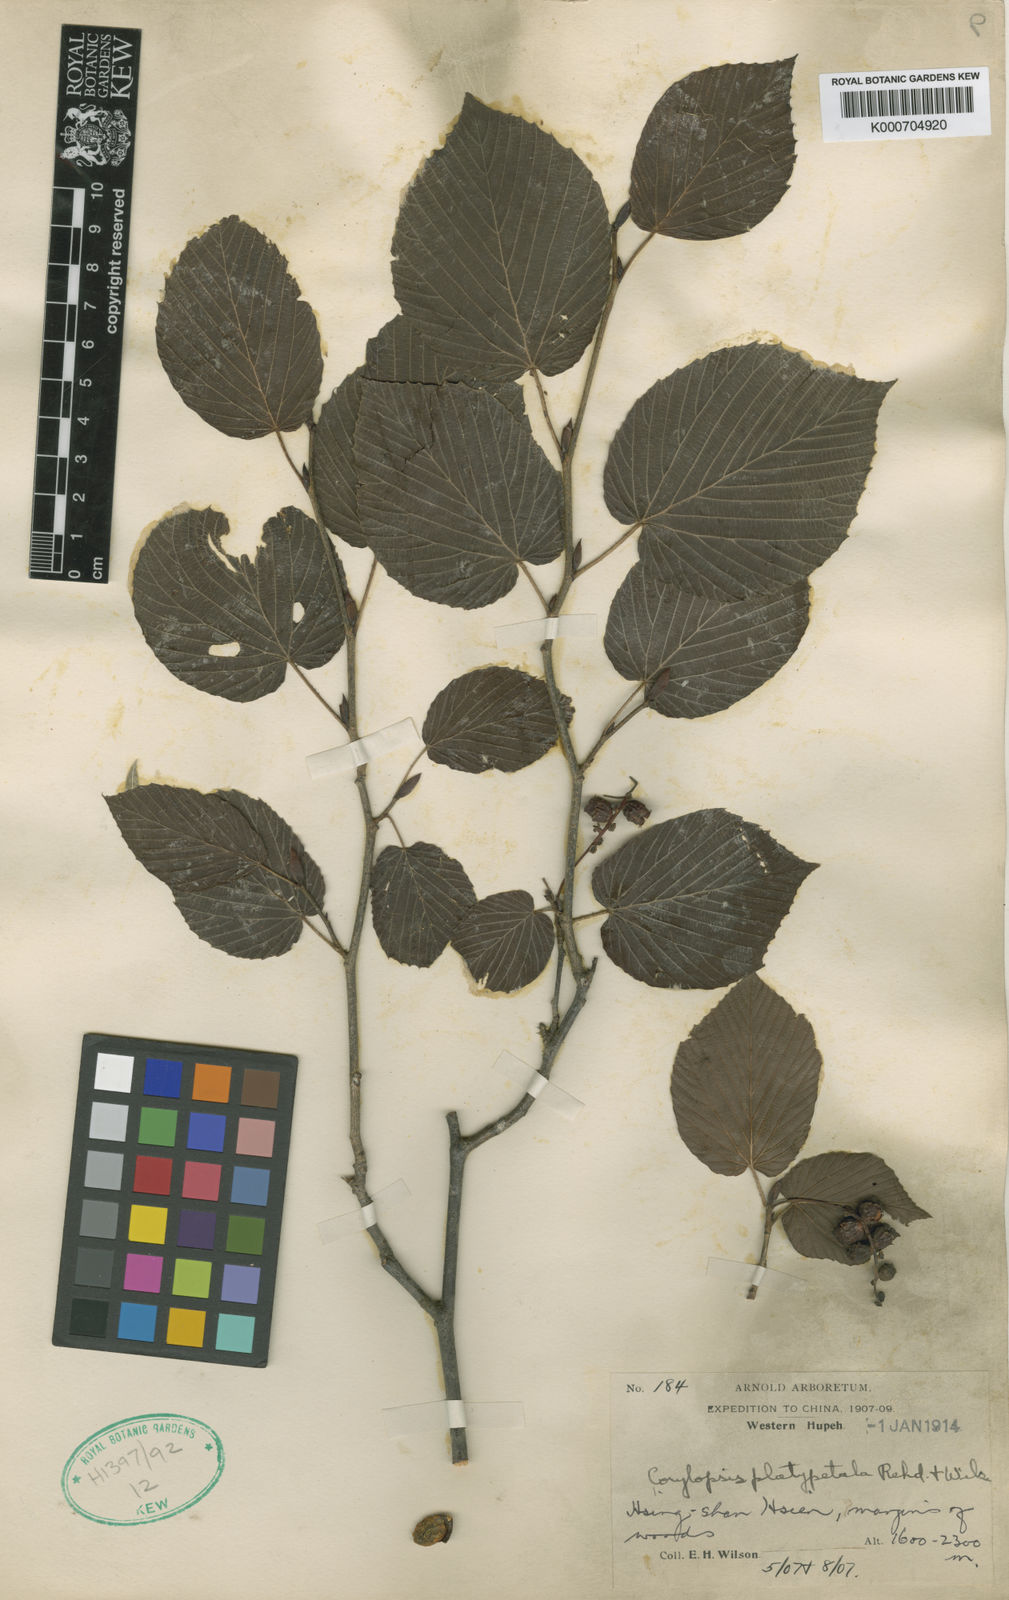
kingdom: Plantae
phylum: Tracheophyta
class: Magnoliopsida
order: Saxifragales
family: Hamamelidaceae
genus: Corylopsis
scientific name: Corylopsis sinensis
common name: Winter hazel
